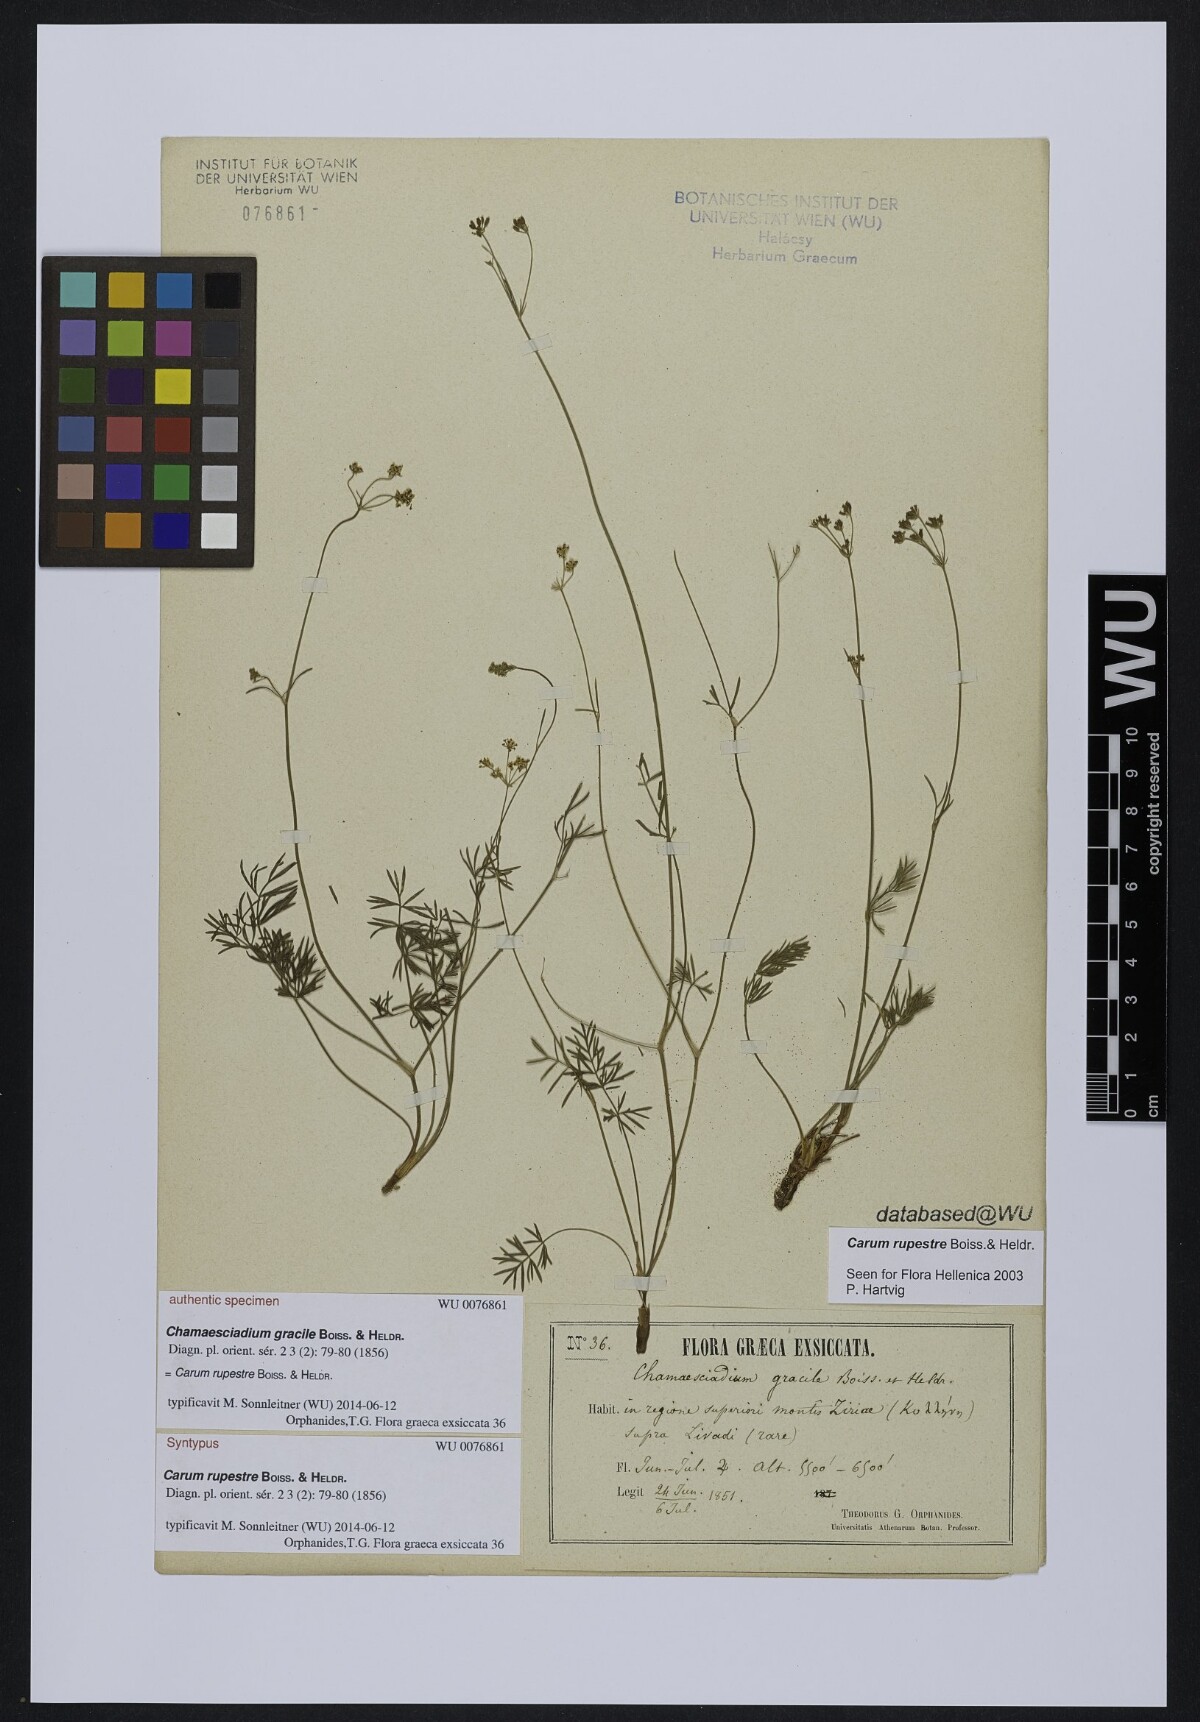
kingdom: Plantae
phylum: Tracheophyta
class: Magnoliopsida
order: Apiales
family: Apiaceae
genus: Carum
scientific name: Carum meoides
